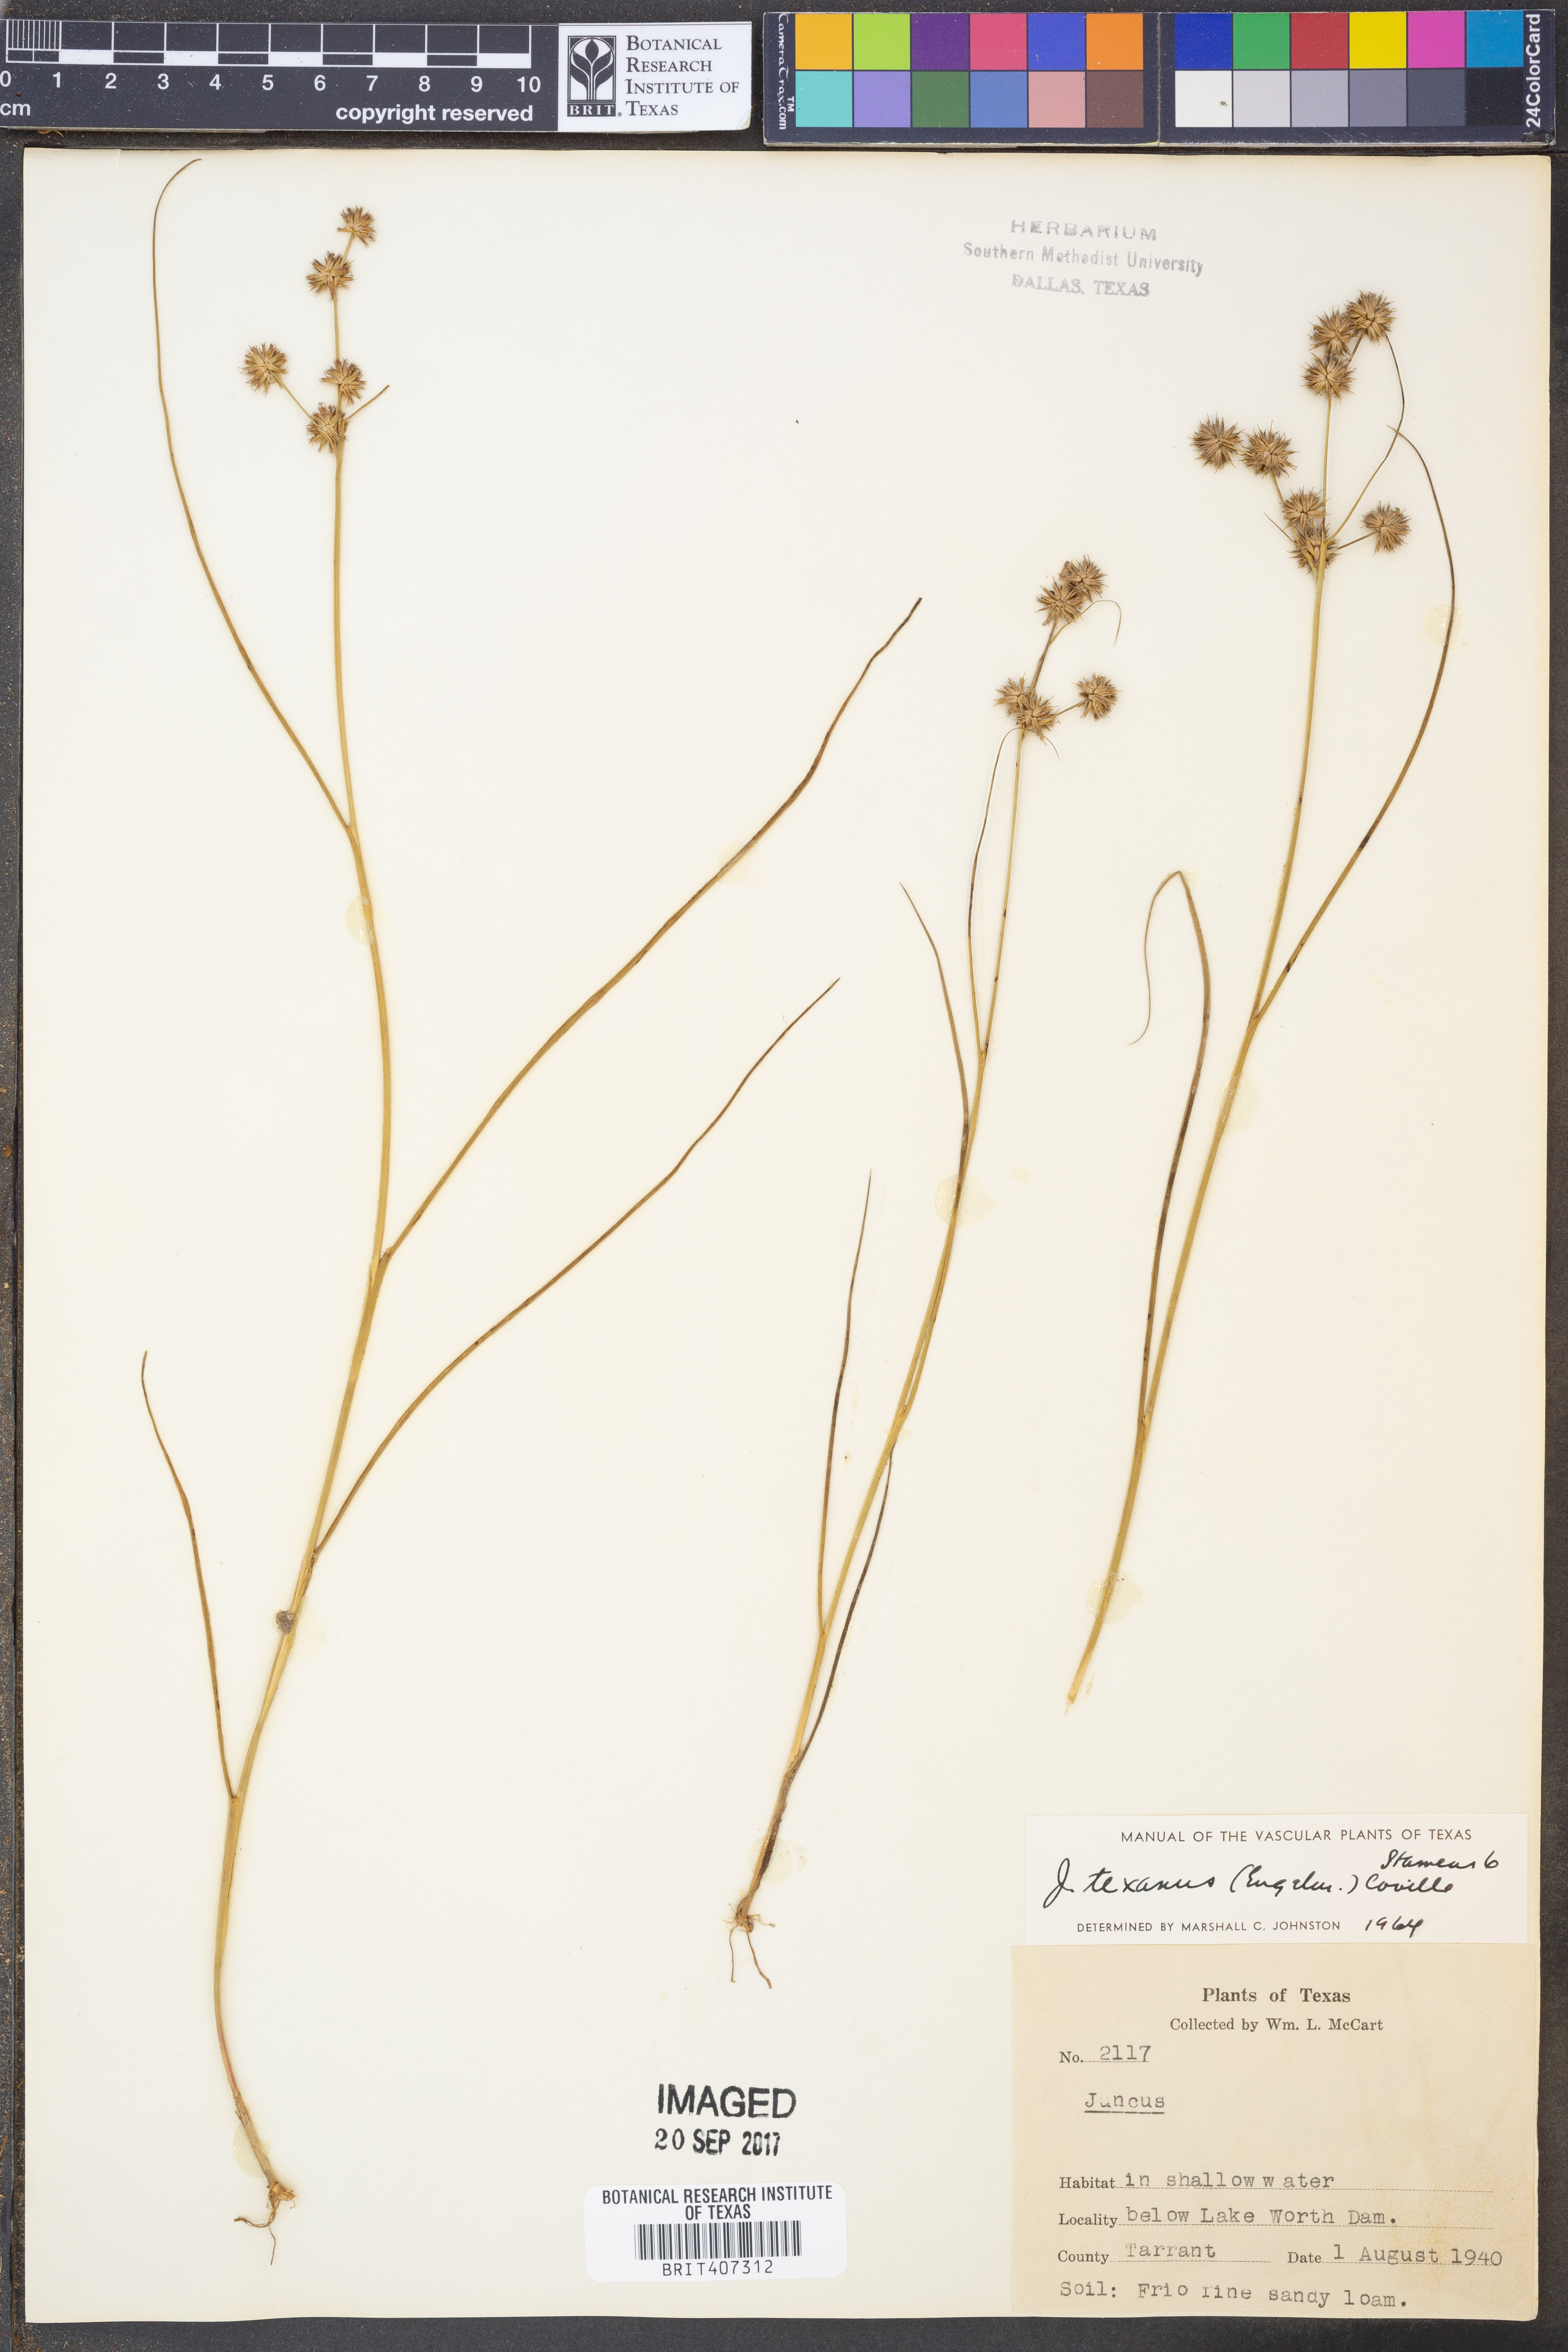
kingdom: Plantae
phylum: Tracheophyta
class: Liliopsida
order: Poales
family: Juncaceae
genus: Juncus
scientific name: Juncus texanus
